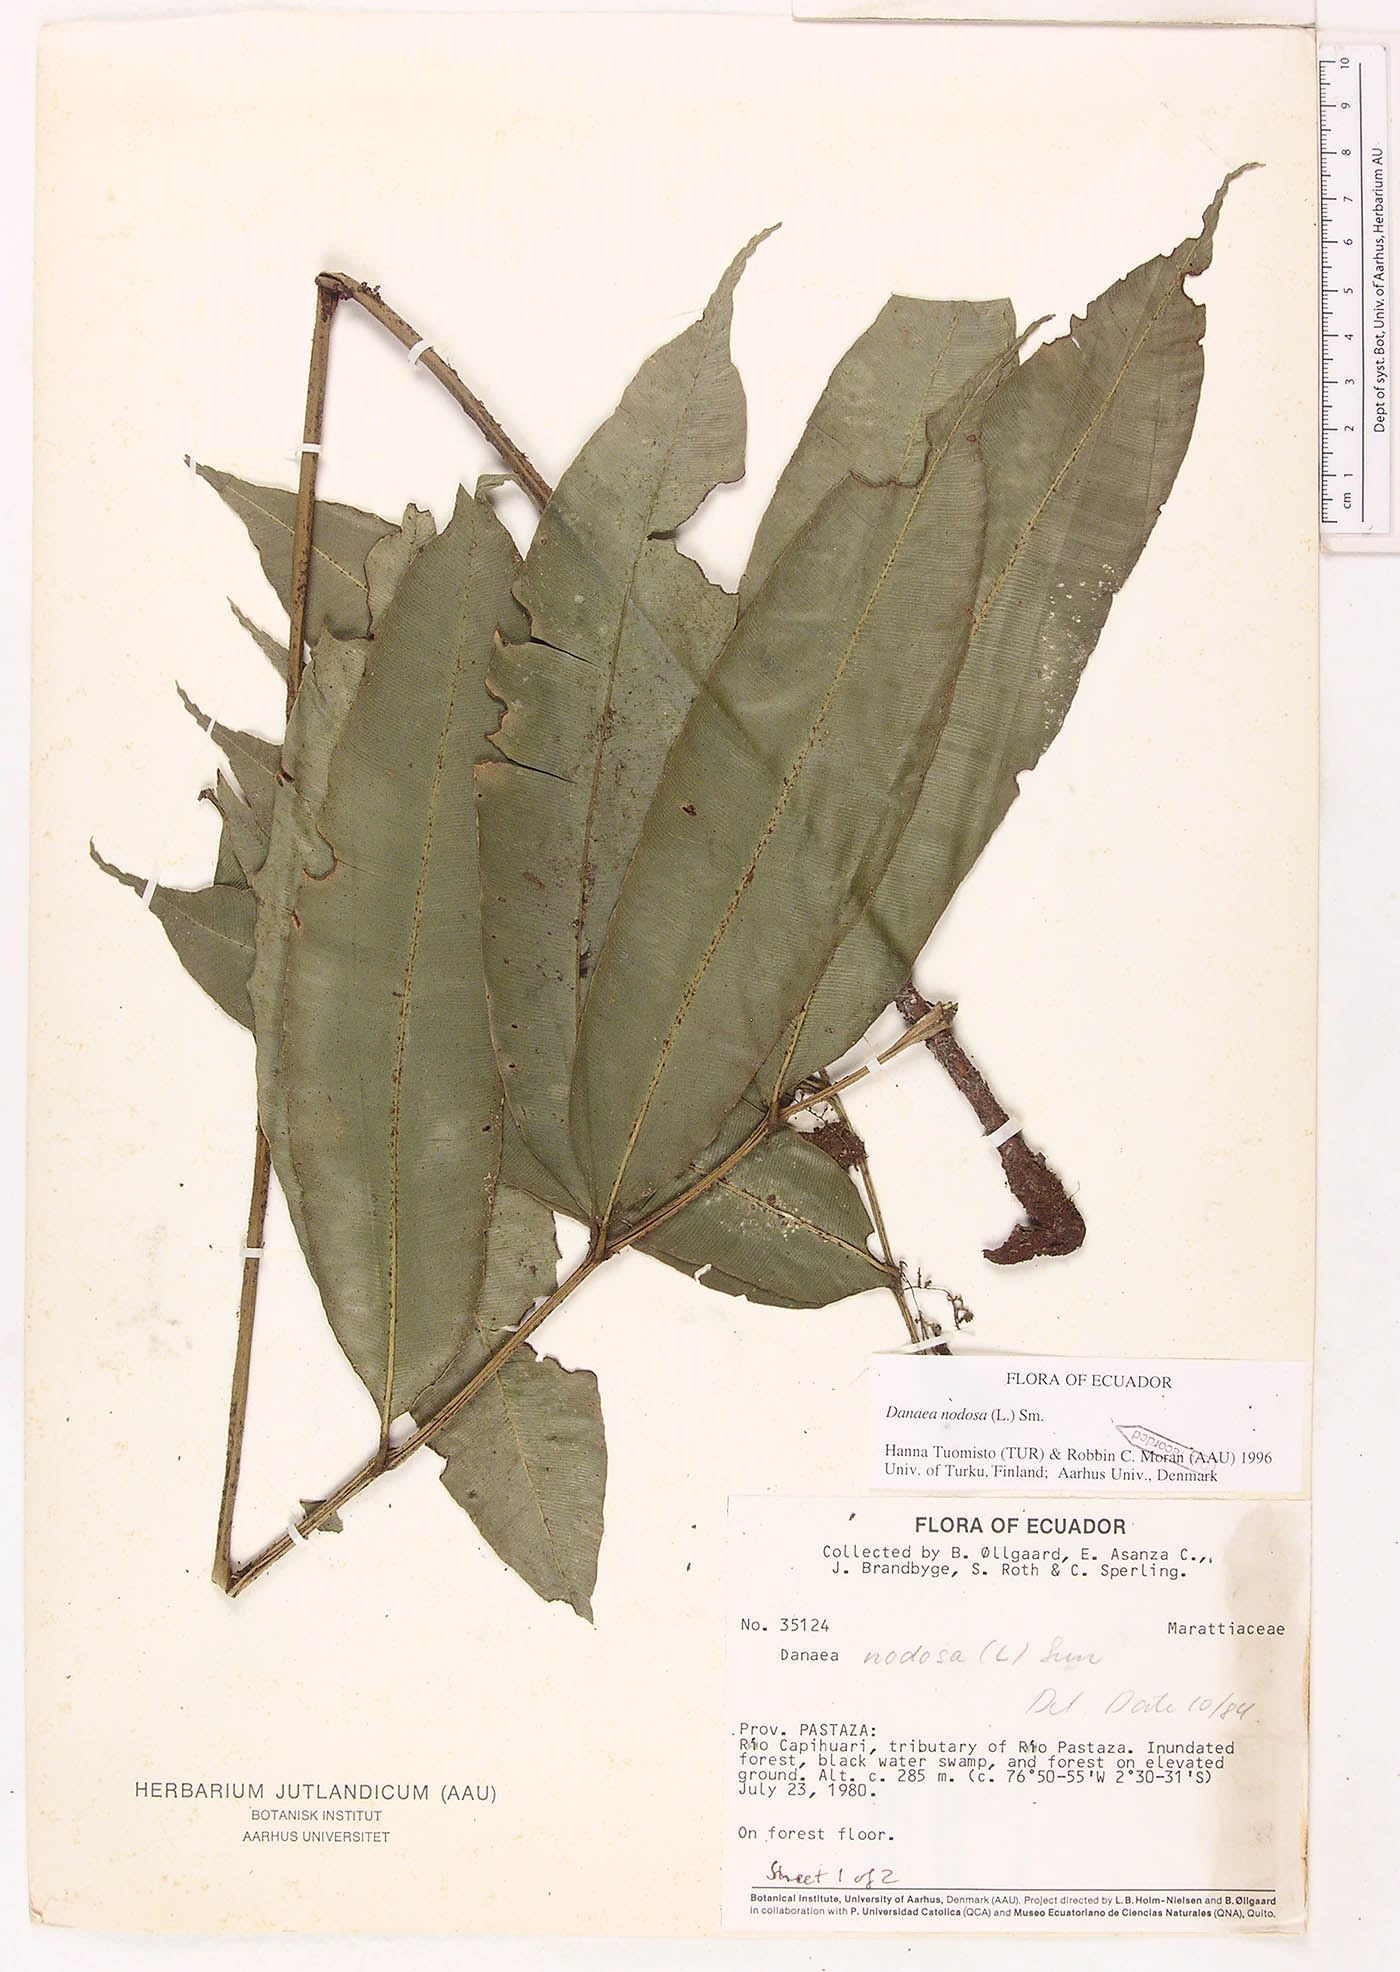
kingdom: Plantae
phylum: Tracheophyta
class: Polypodiopsida
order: Marattiales
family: Marattiaceae
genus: Danaea
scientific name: Danaea nodosa
